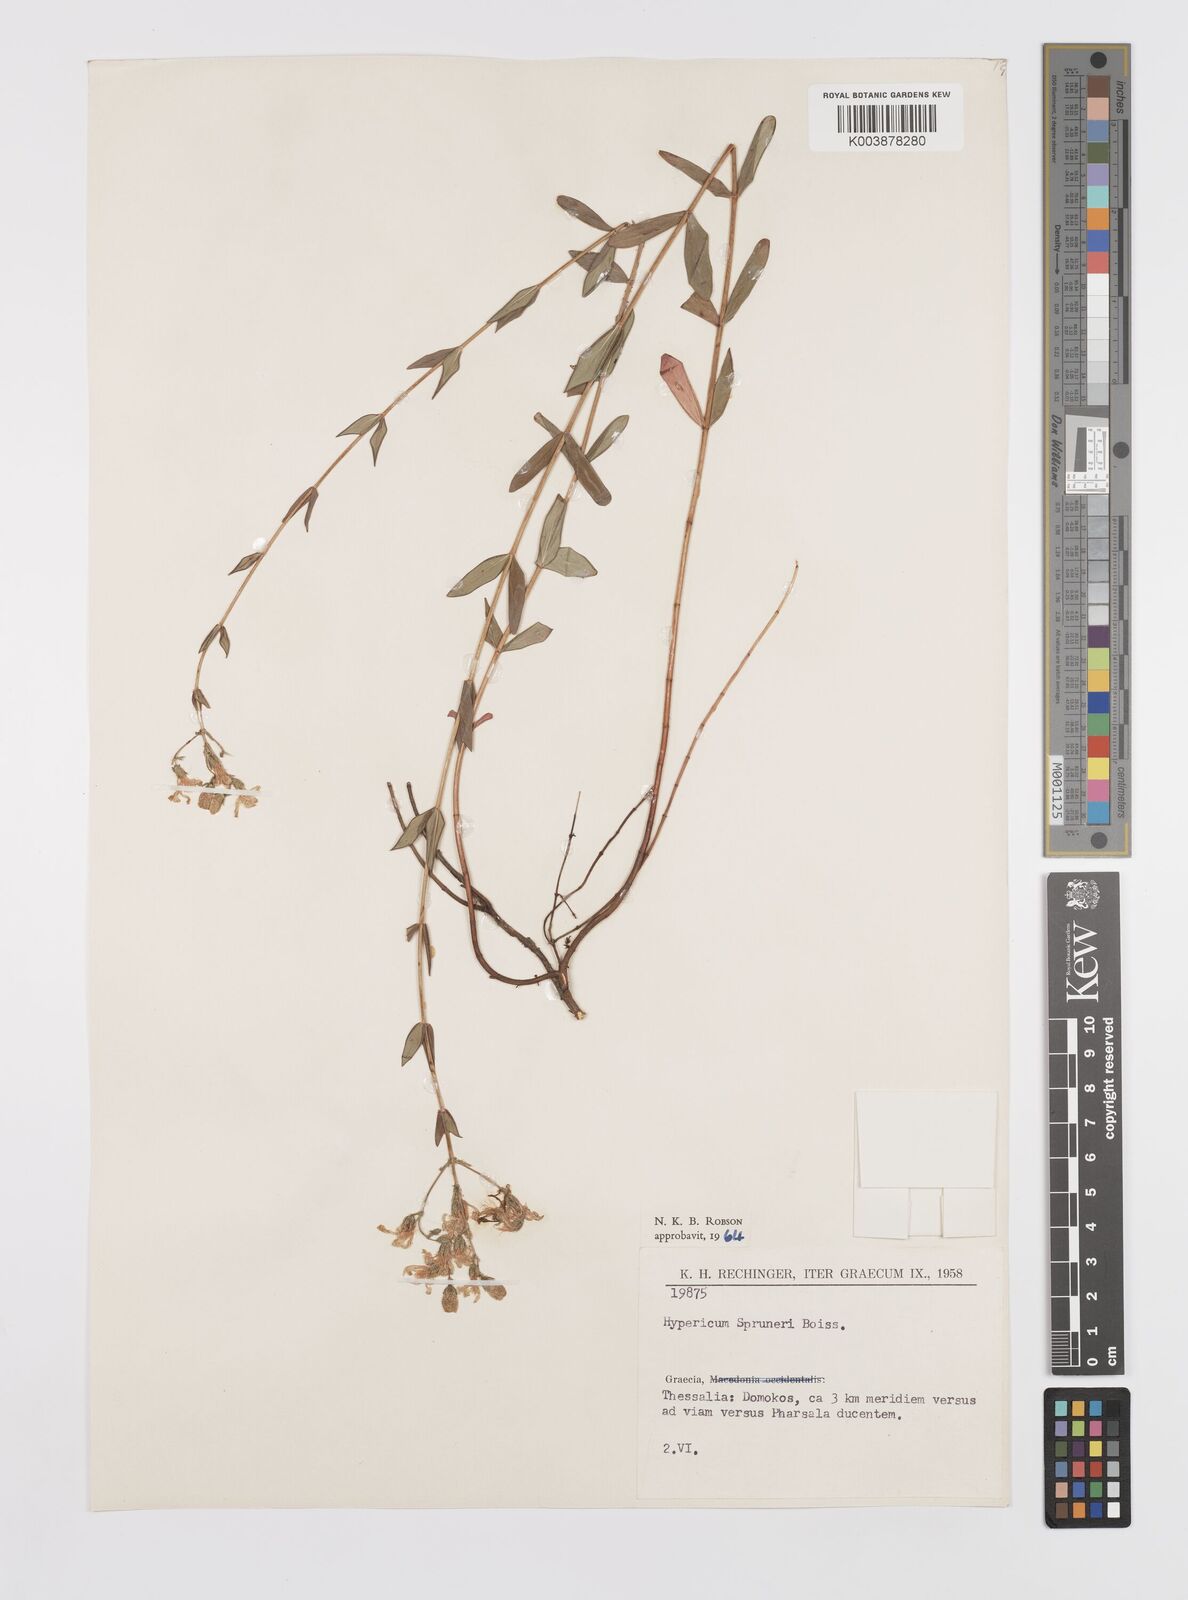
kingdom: Plantae
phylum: Tracheophyta
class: Magnoliopsida
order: Malpighiales
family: Hypericaceae
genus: Hypericum
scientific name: Hypericum spruneri
